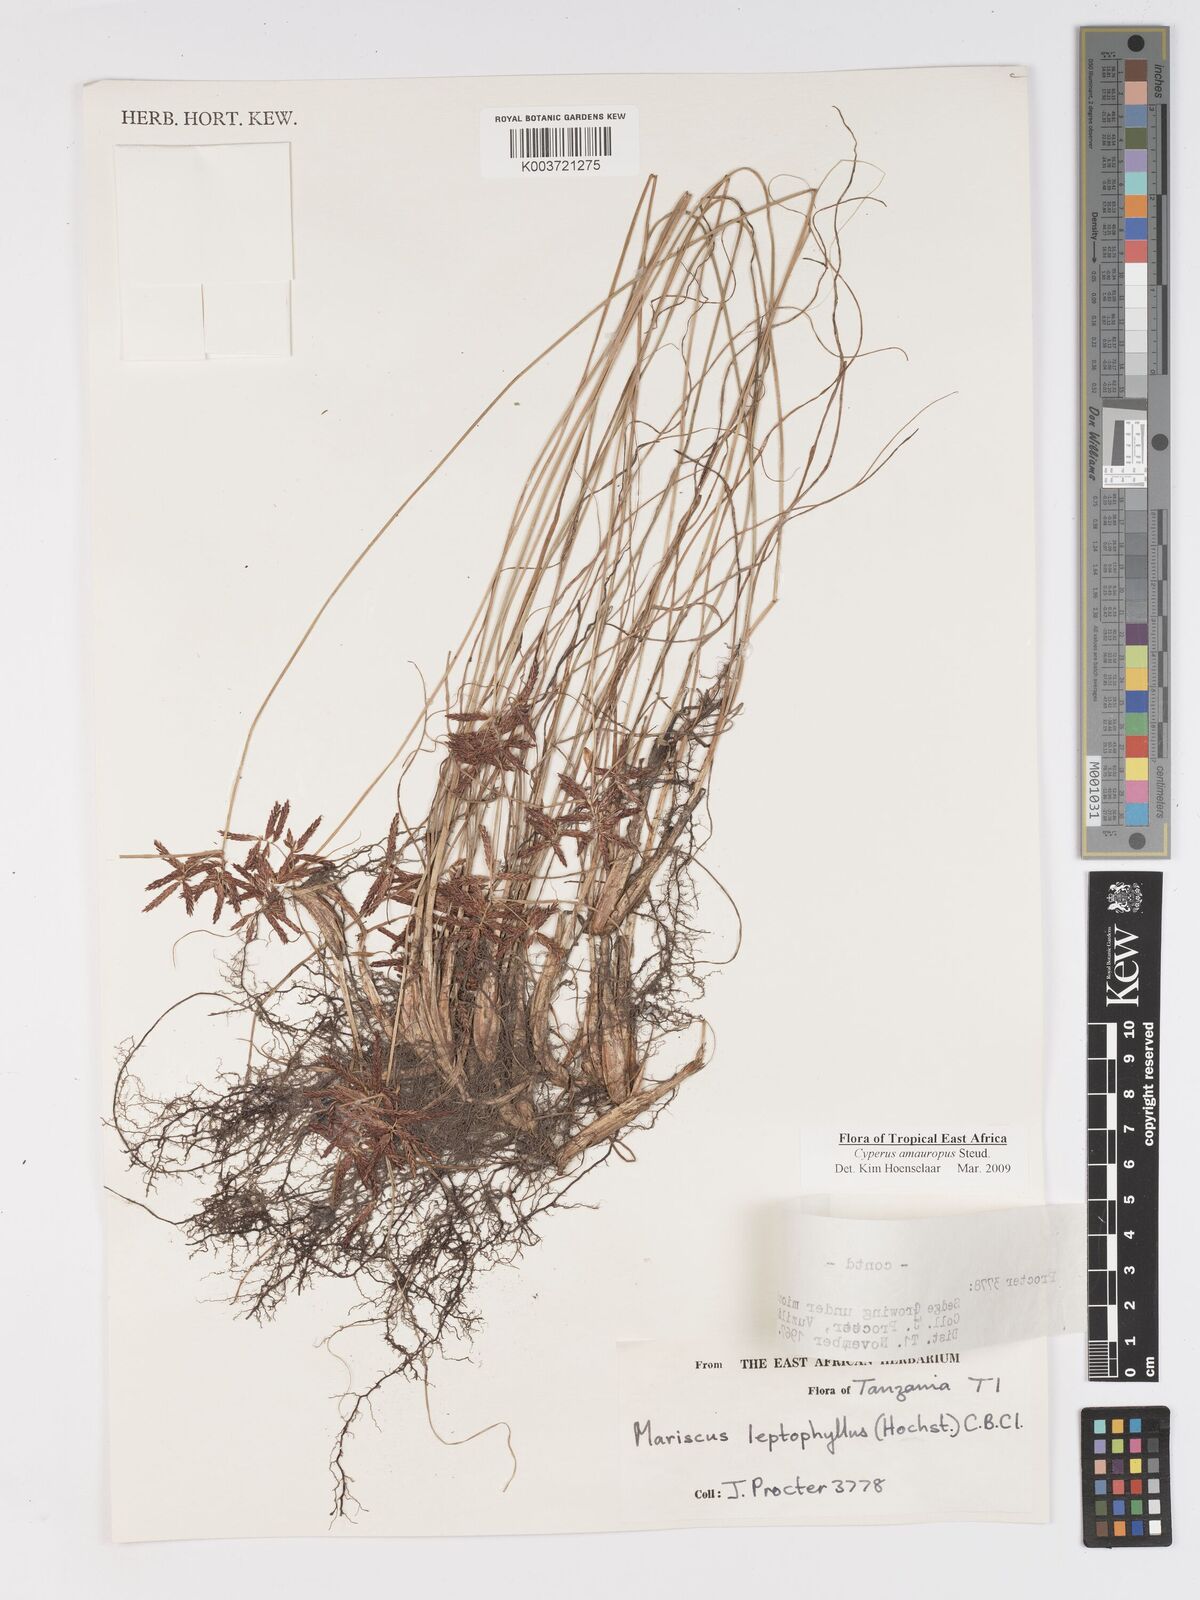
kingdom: Plantae
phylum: Tracheophyta
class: Liliopsida
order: Poales
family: Cyperaceae
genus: Cyperus
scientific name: Cyperus amauropus
